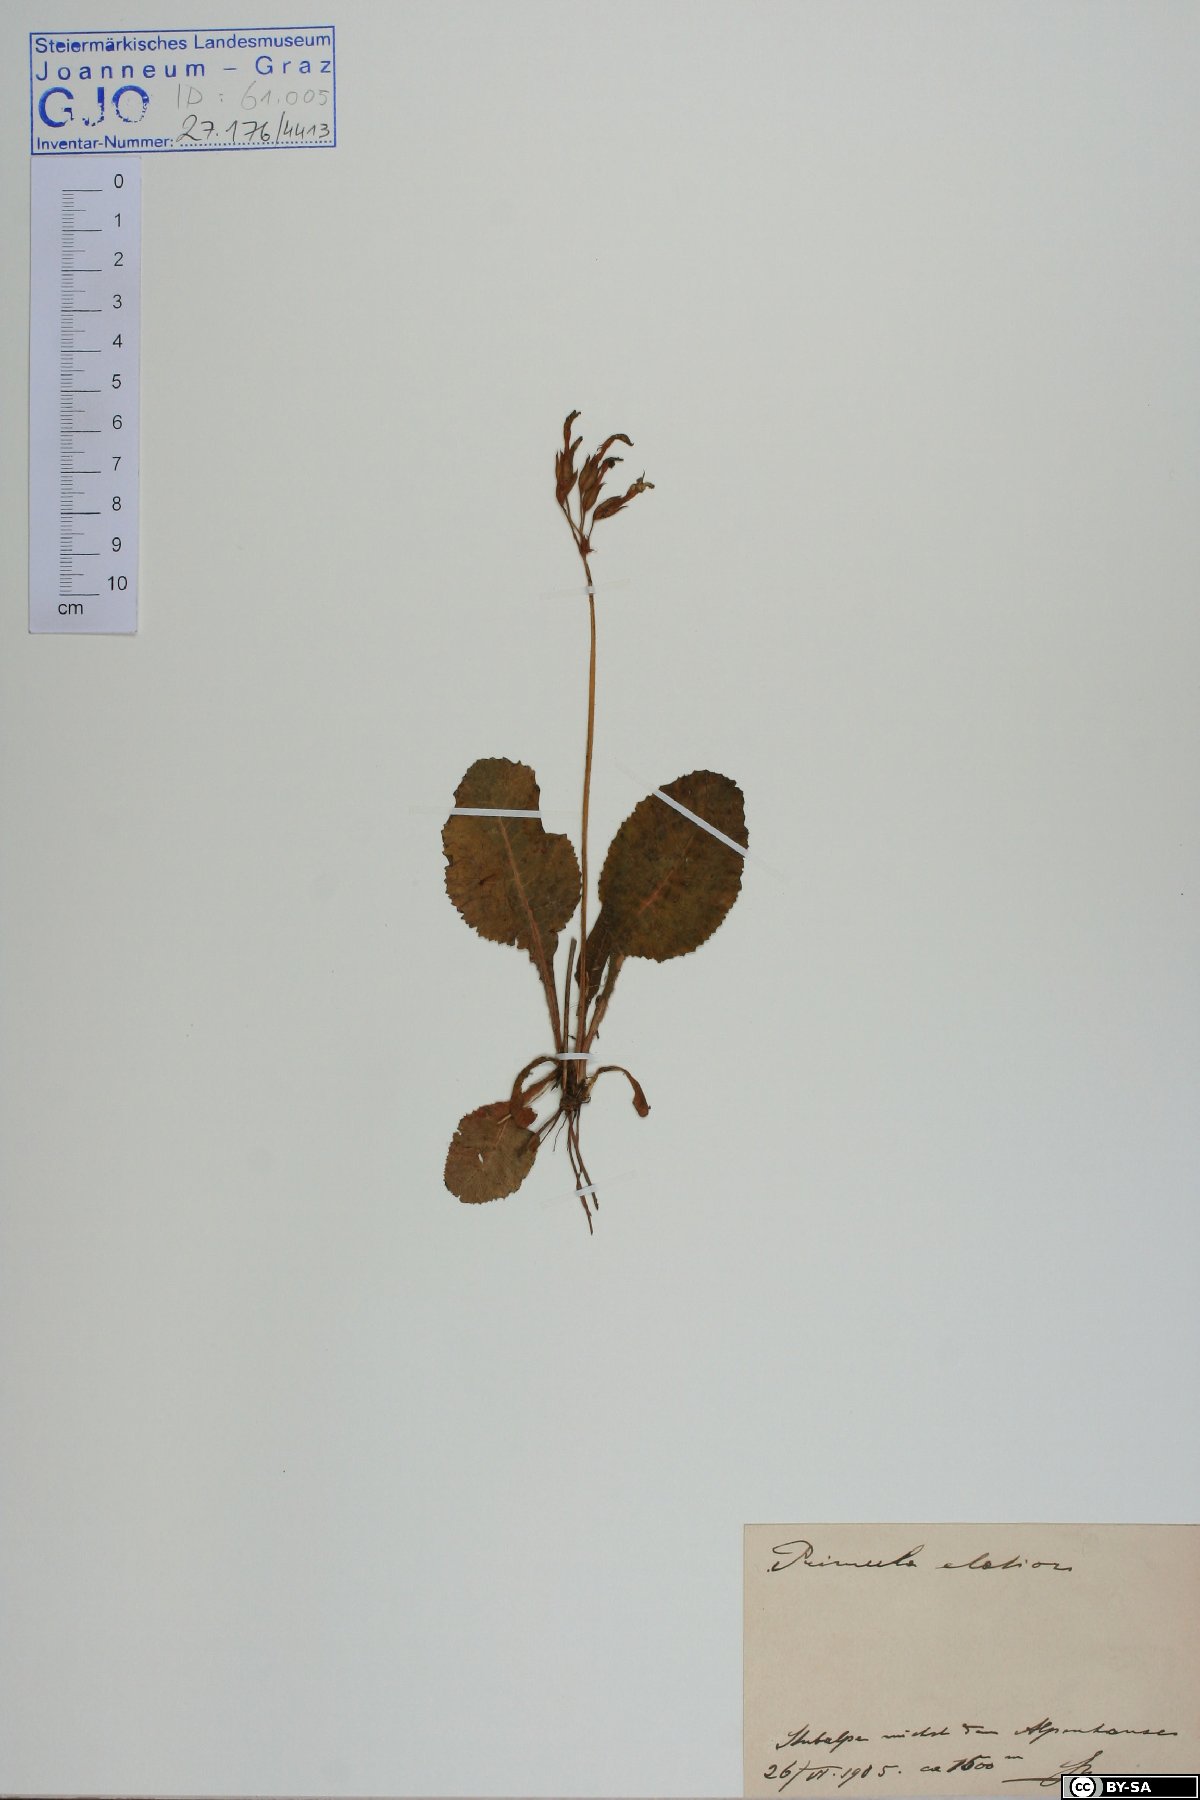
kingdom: Plantae
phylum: Tracheophyta
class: Magnoliopsida
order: Ericales
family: Primulaceae
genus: Primula
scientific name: Primula elatior
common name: Oxlip
